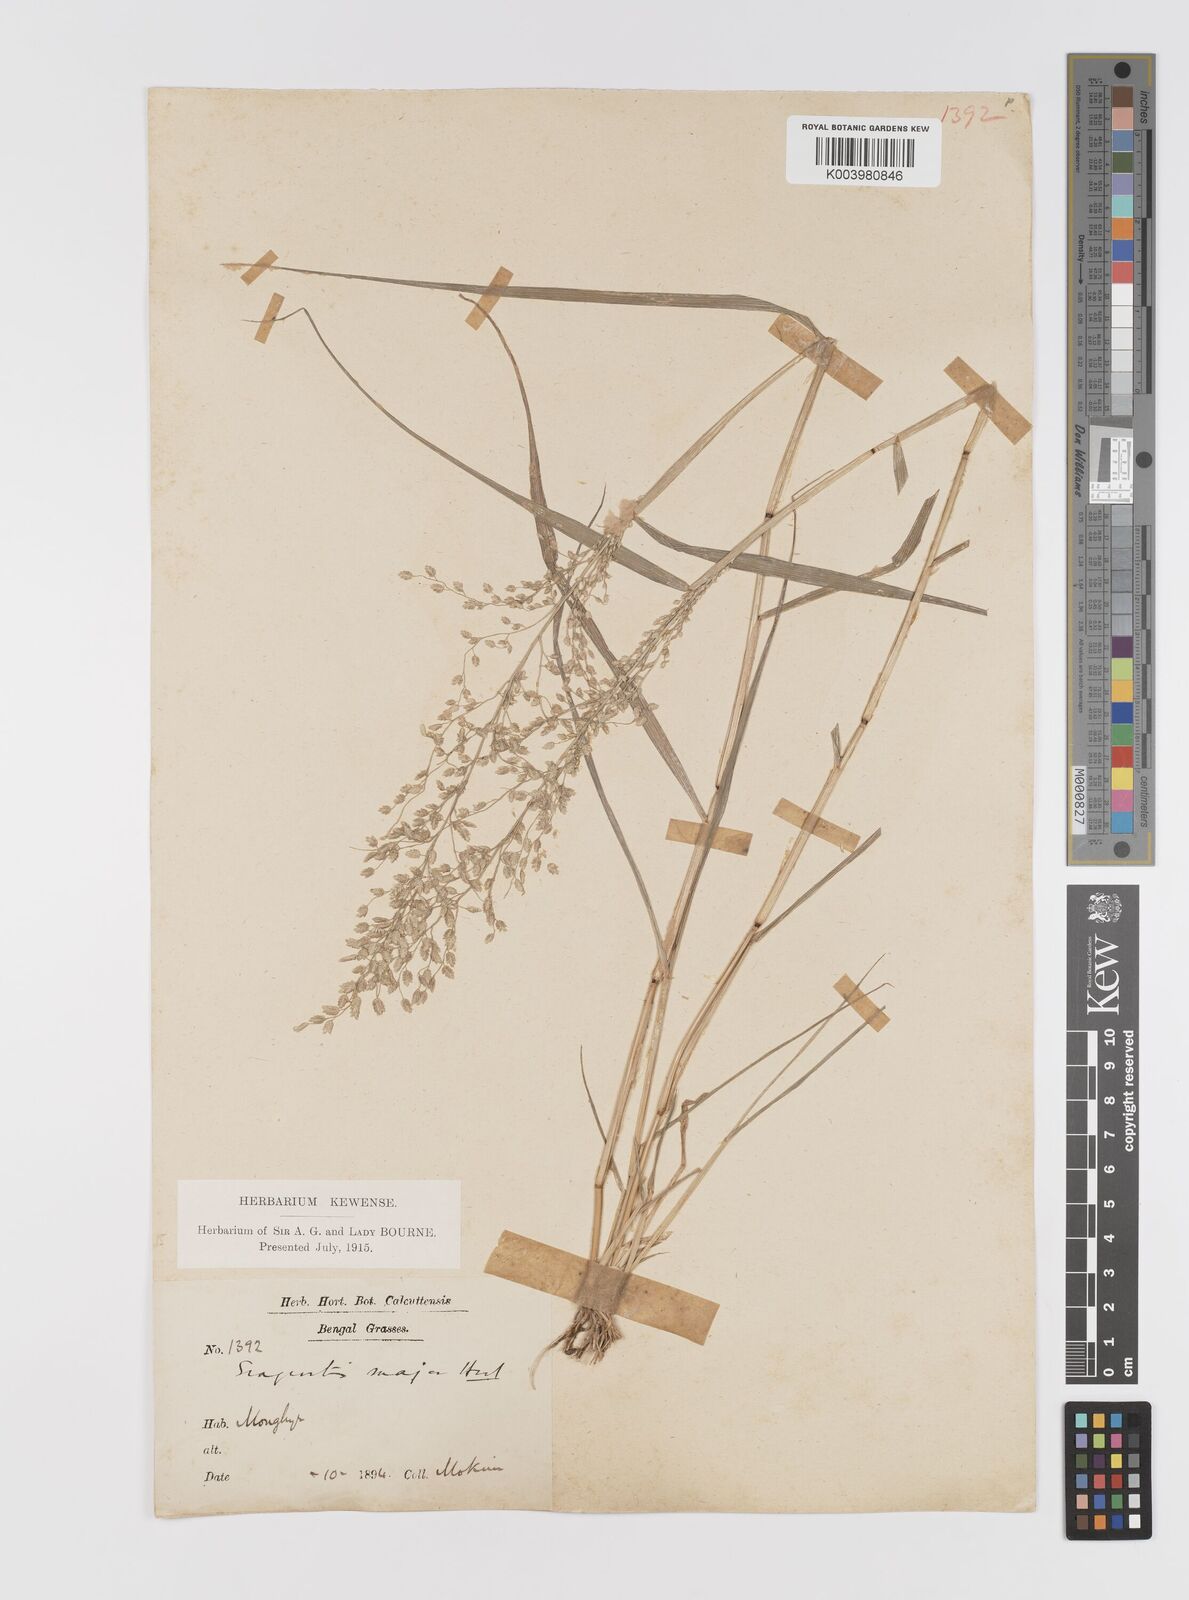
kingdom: Plantae
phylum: Tracheophyta
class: Liliopsida
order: Poales
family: Poaceae
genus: Eragrostis
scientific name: Eragrostis cilianensis
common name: Stinkgrass
